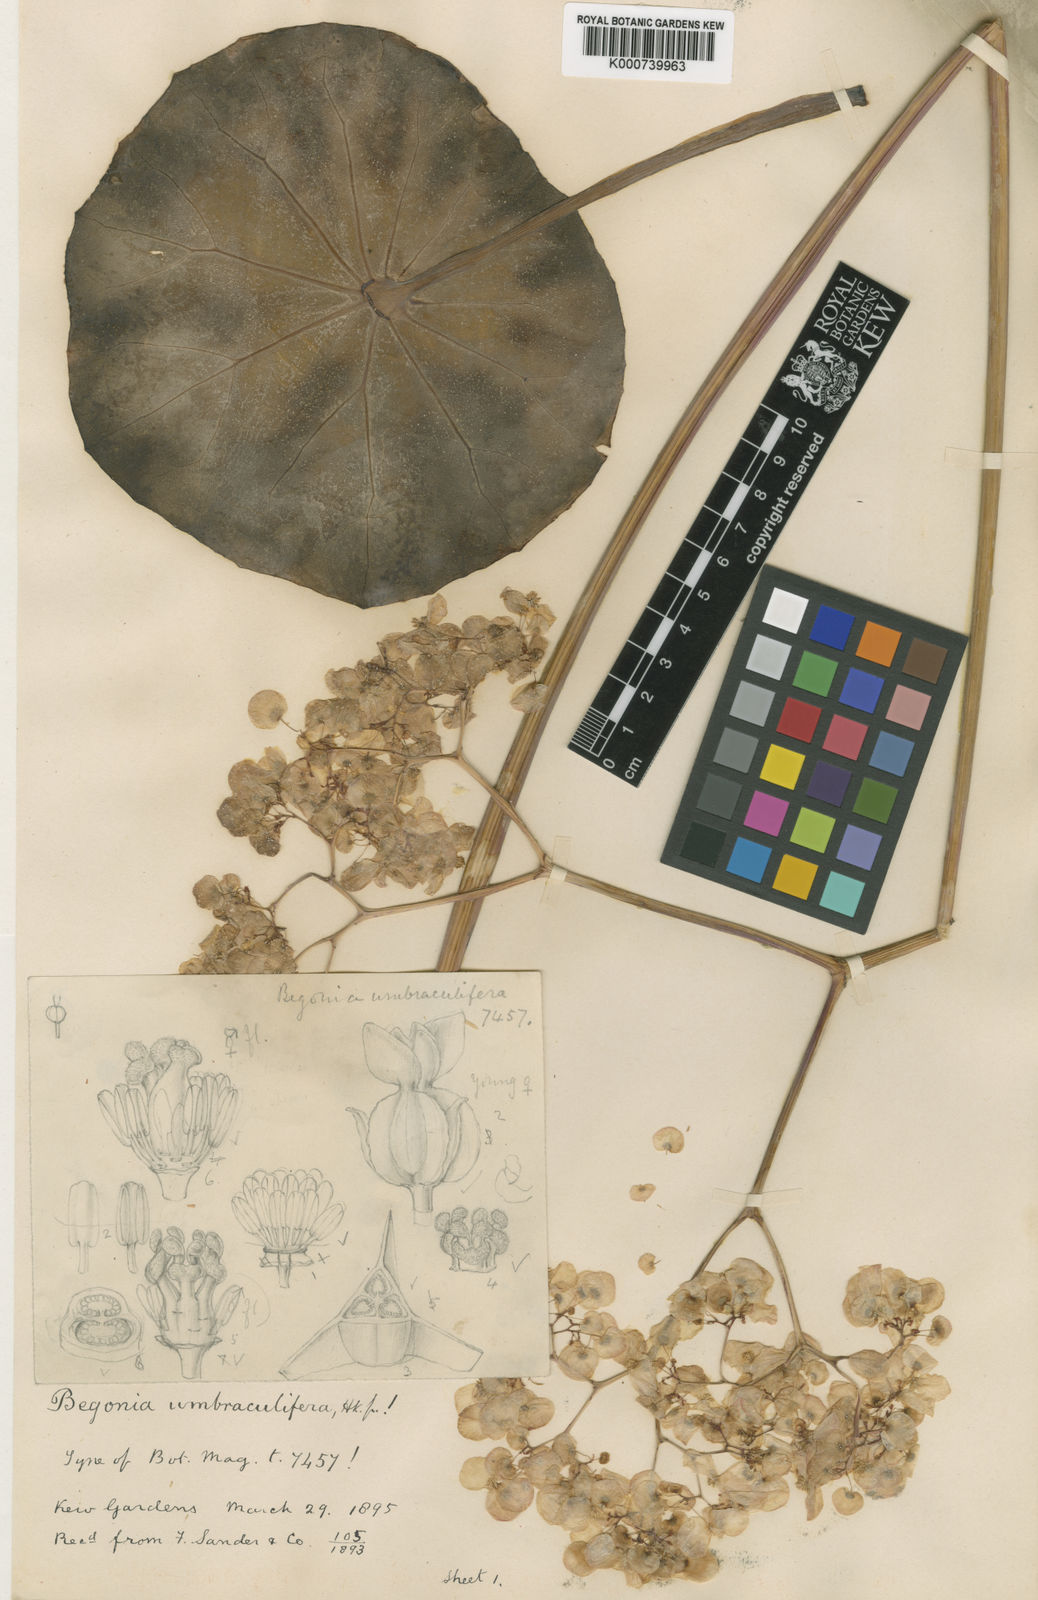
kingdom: Plantae
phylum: Tracheophyta
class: Magnoliopsida
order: Cucurbitales
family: Begoniaceae
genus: Begonia
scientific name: Begonia umbraculifera
